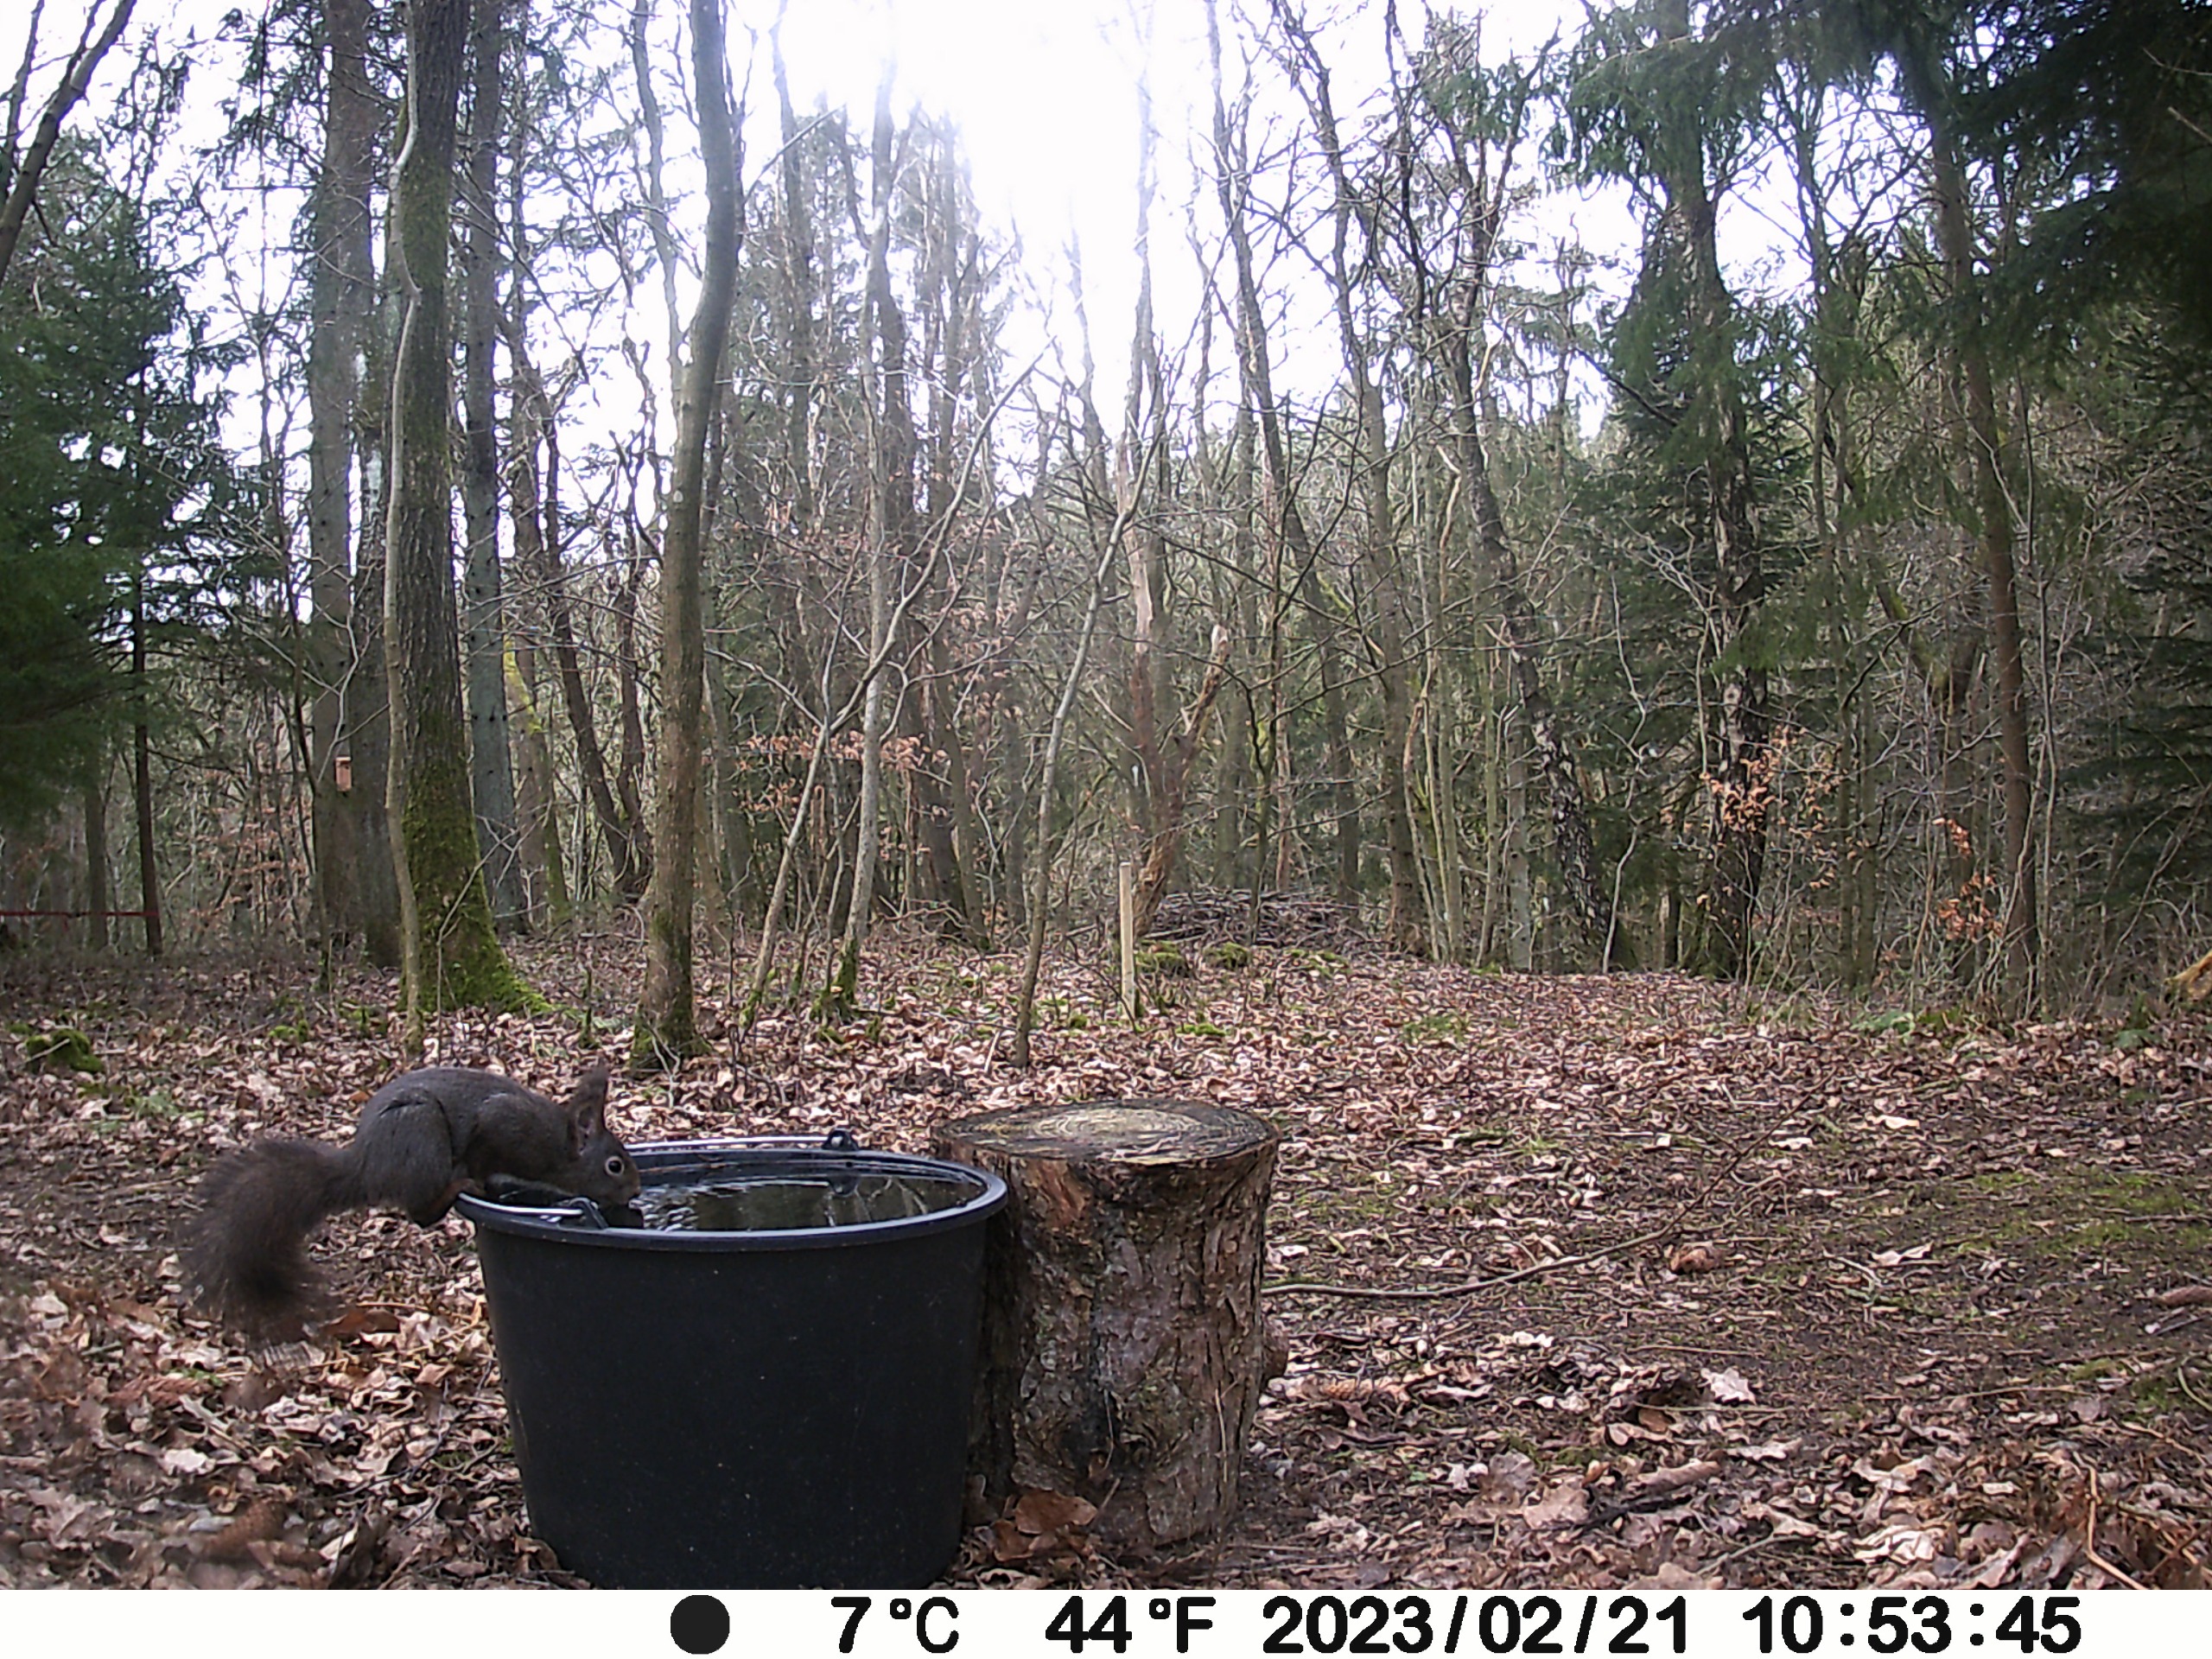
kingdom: Animalia
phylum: Chordata
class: Mammalia
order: Rodentia
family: Sciuridae
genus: Sciurus
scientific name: Sciurus vulgaris
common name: Egern
